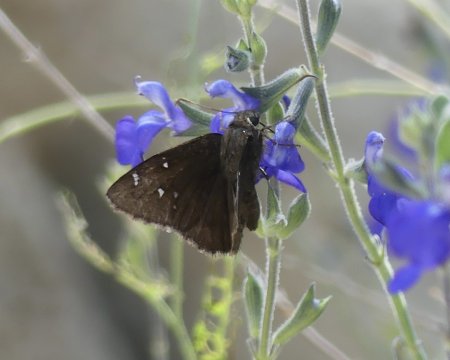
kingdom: Animalia
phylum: Arthropoda
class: Insecta
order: Lepidoptera
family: Hesperiidae
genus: Autochton
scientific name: Autochton
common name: Northern Cloudywing
